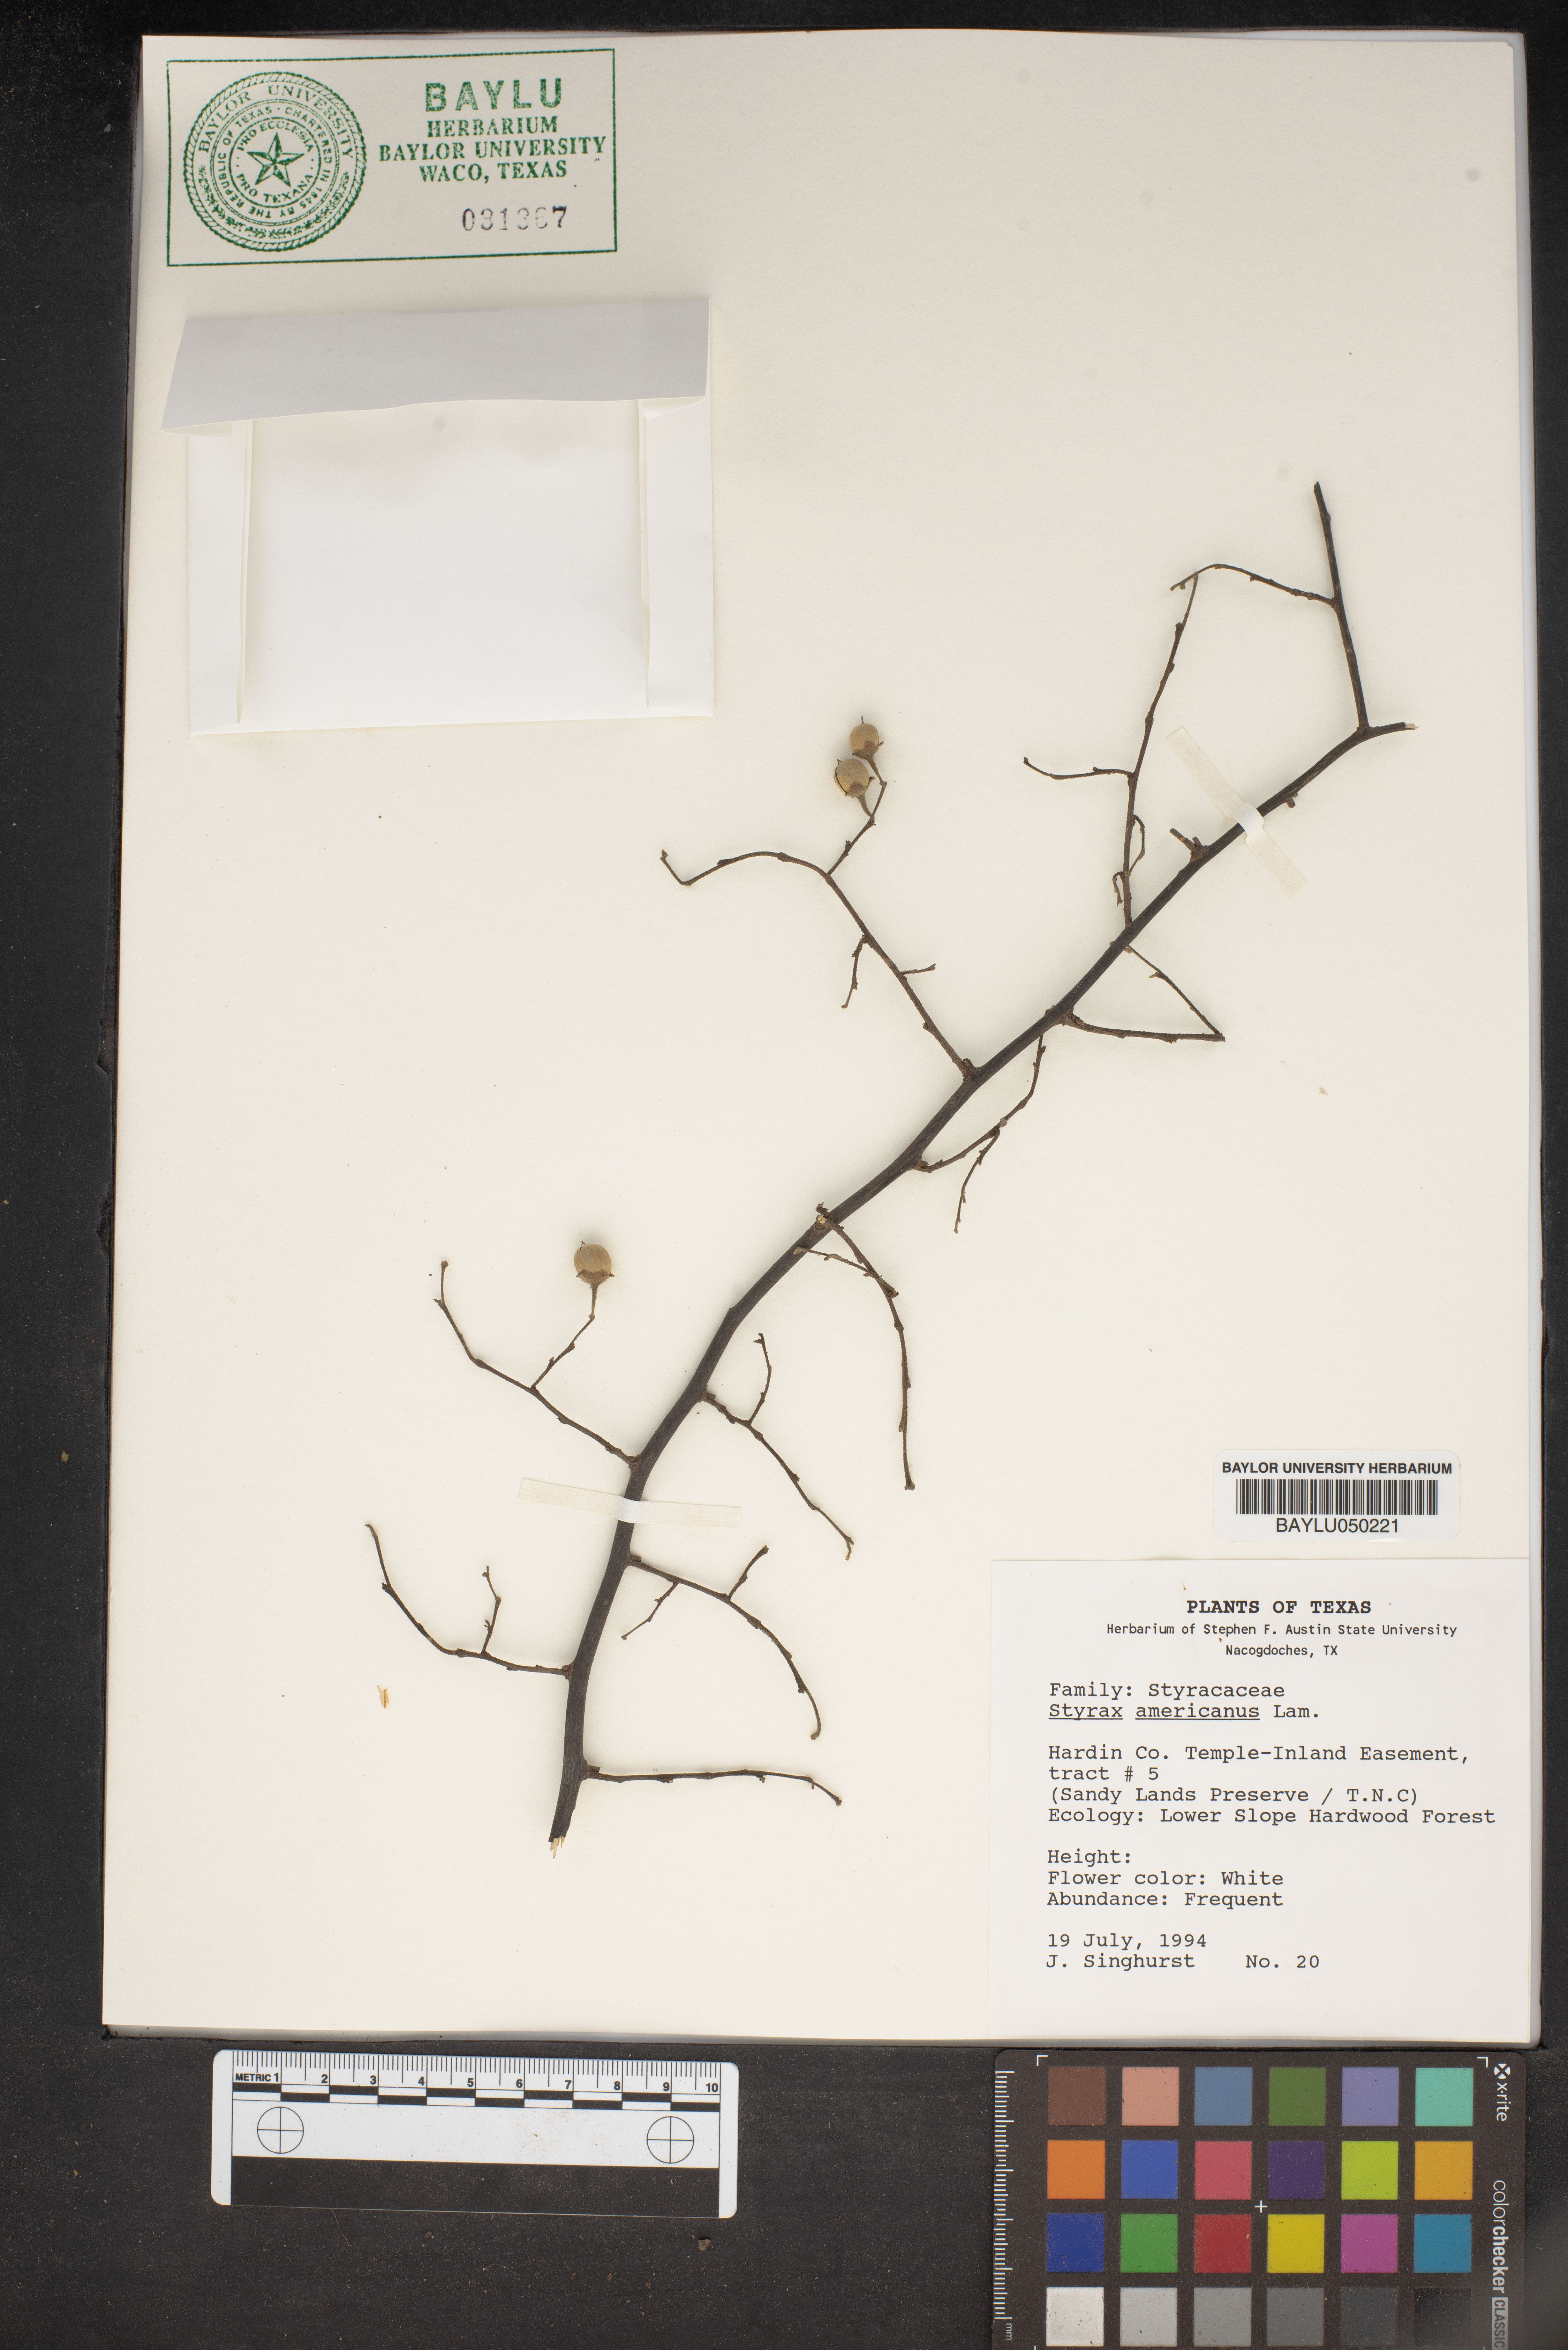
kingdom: Plantae
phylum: Tracheophyta
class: Magnoliopsida
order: Ericales
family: Styracaceae
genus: Styrax
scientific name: Styrax americanus
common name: American snowbell
